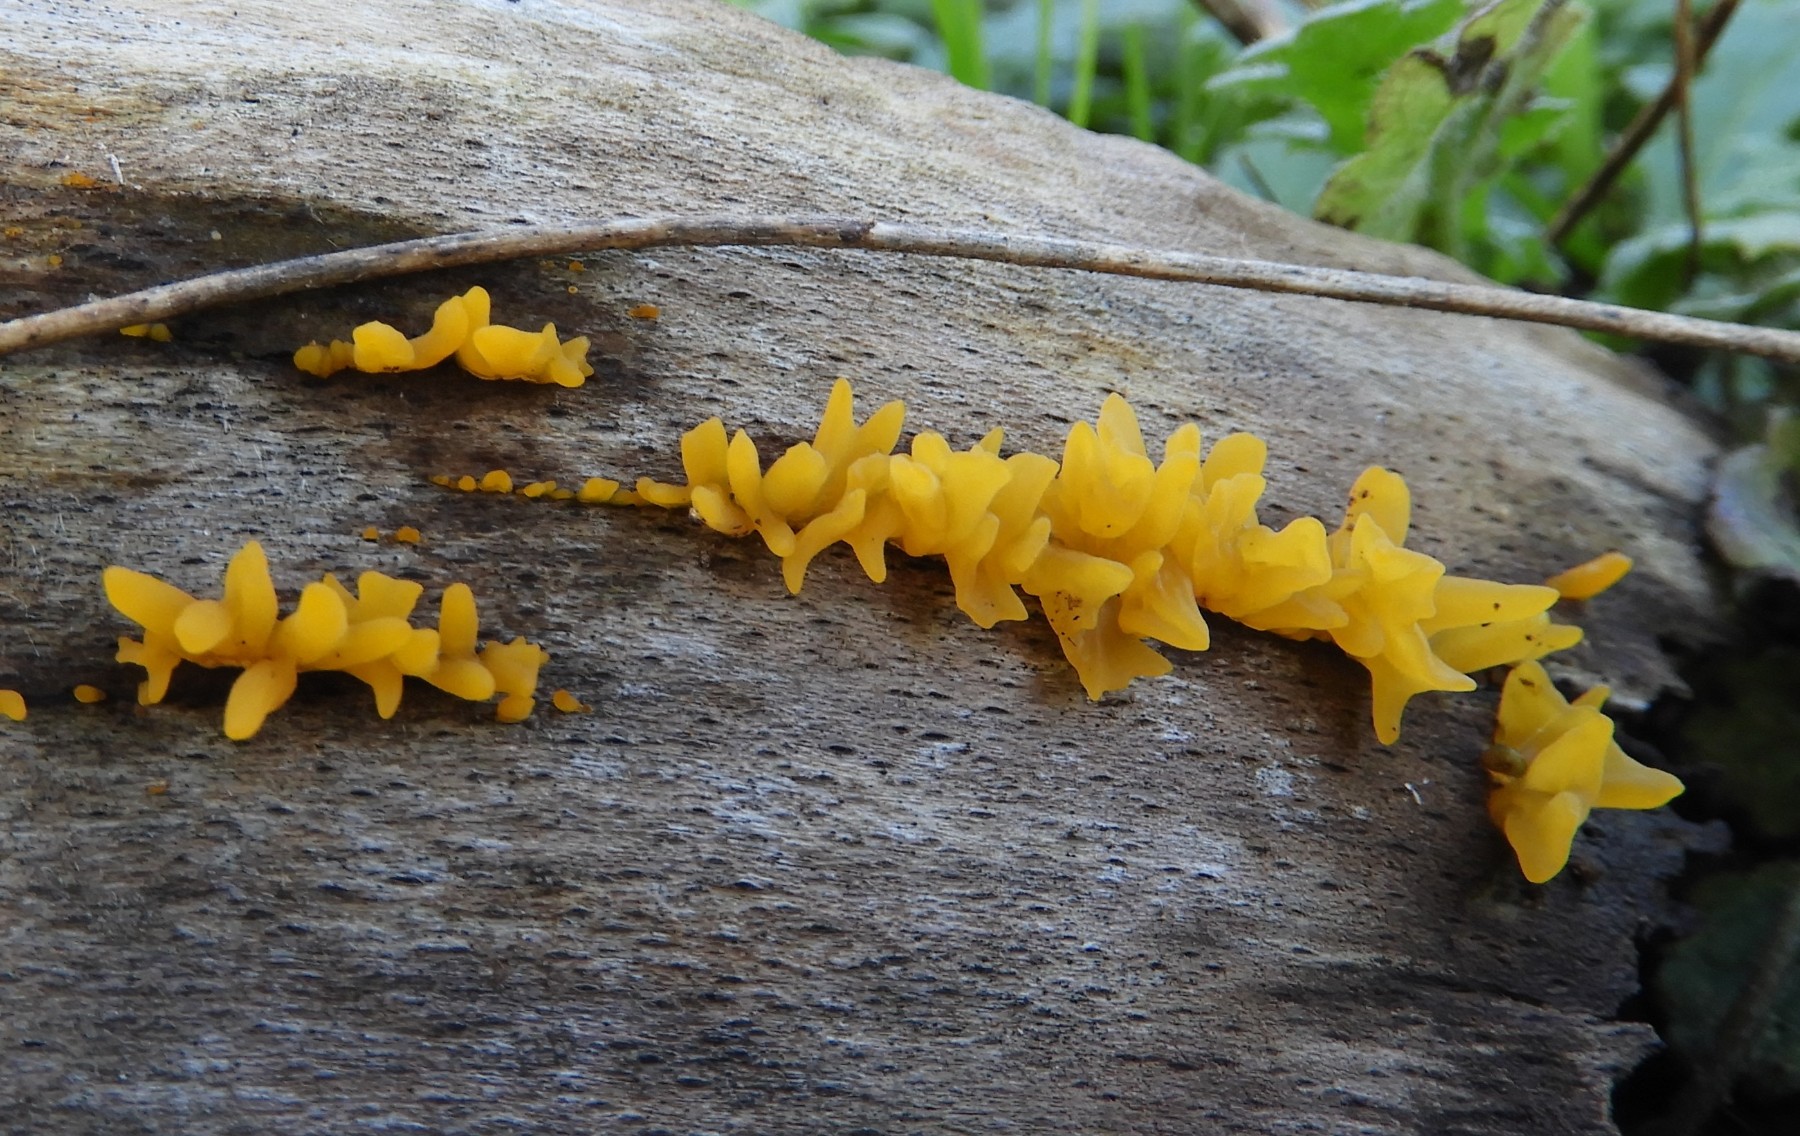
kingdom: Fungi
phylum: Basidiomycota
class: Dacrymycetes
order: Dacrymycetales
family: Dacrymycetaceae
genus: Calocera
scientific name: Calocera cornea
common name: liden guldgaffel
